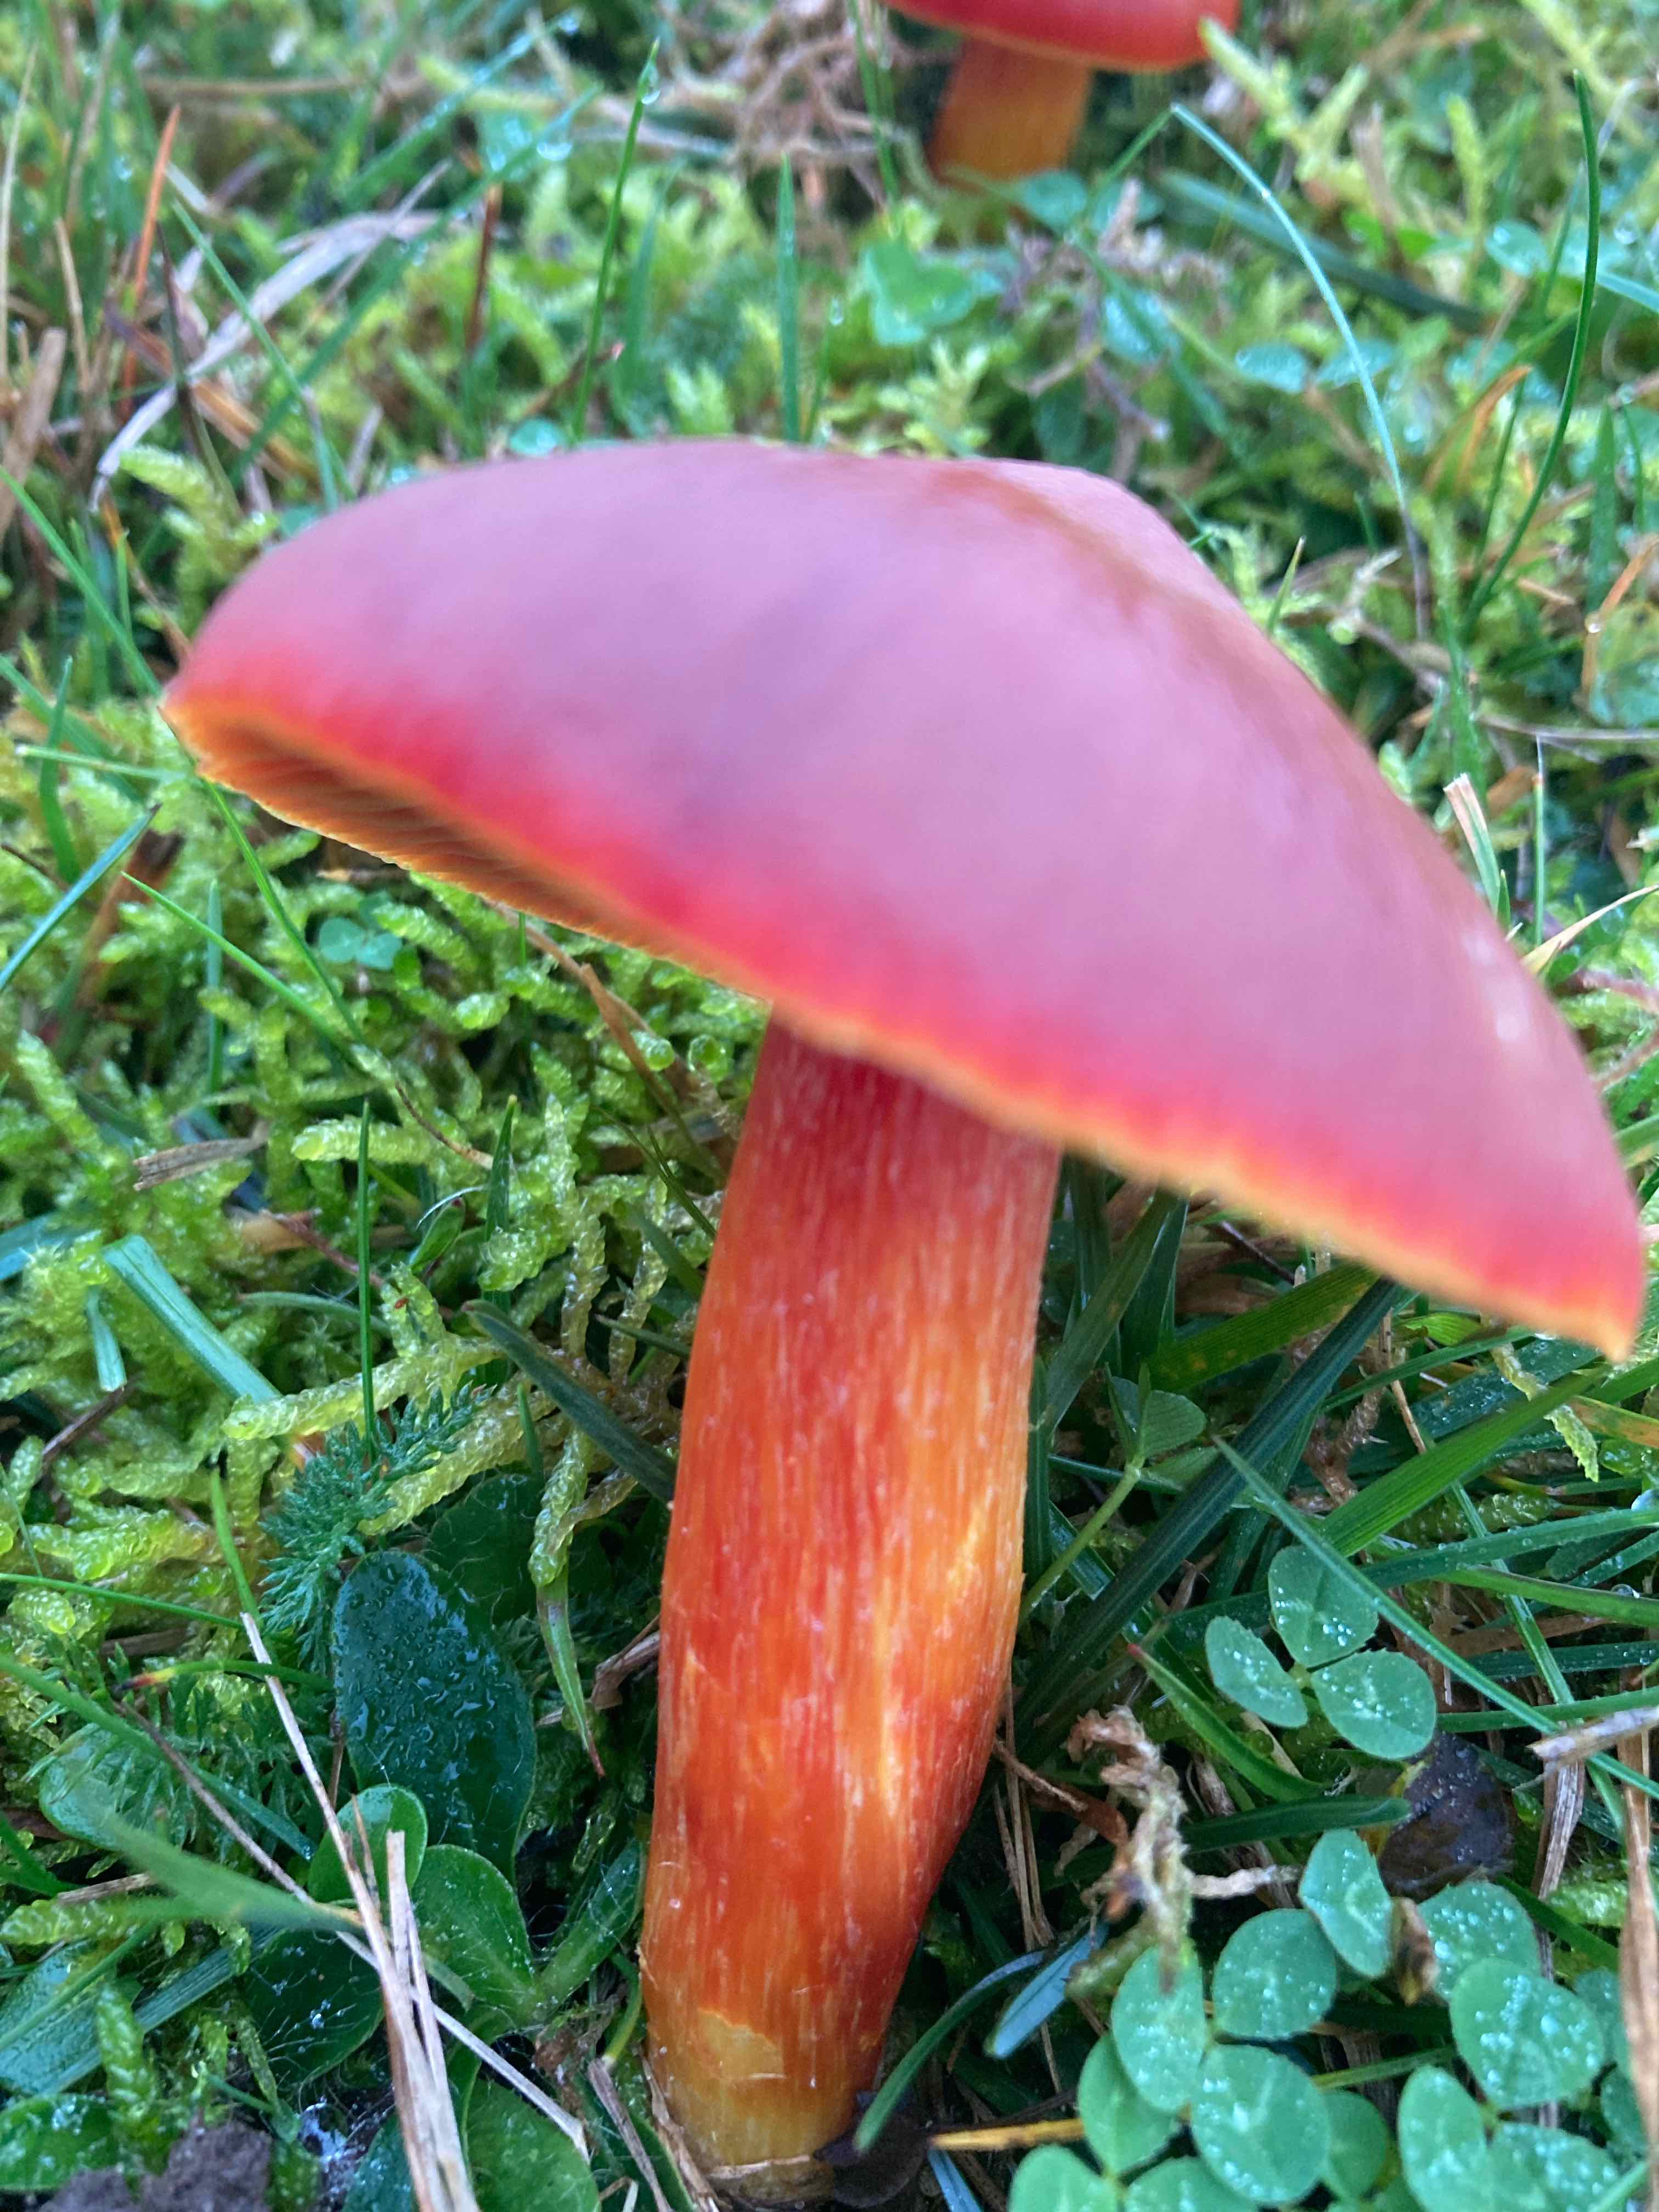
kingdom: Fungi
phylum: Basidiomycota
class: Agaricomycetes
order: Agaricales
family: Hygrophoraceae
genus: Hygrocybe
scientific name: Hygrocybe punicea
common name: skarlagen-vokshat
